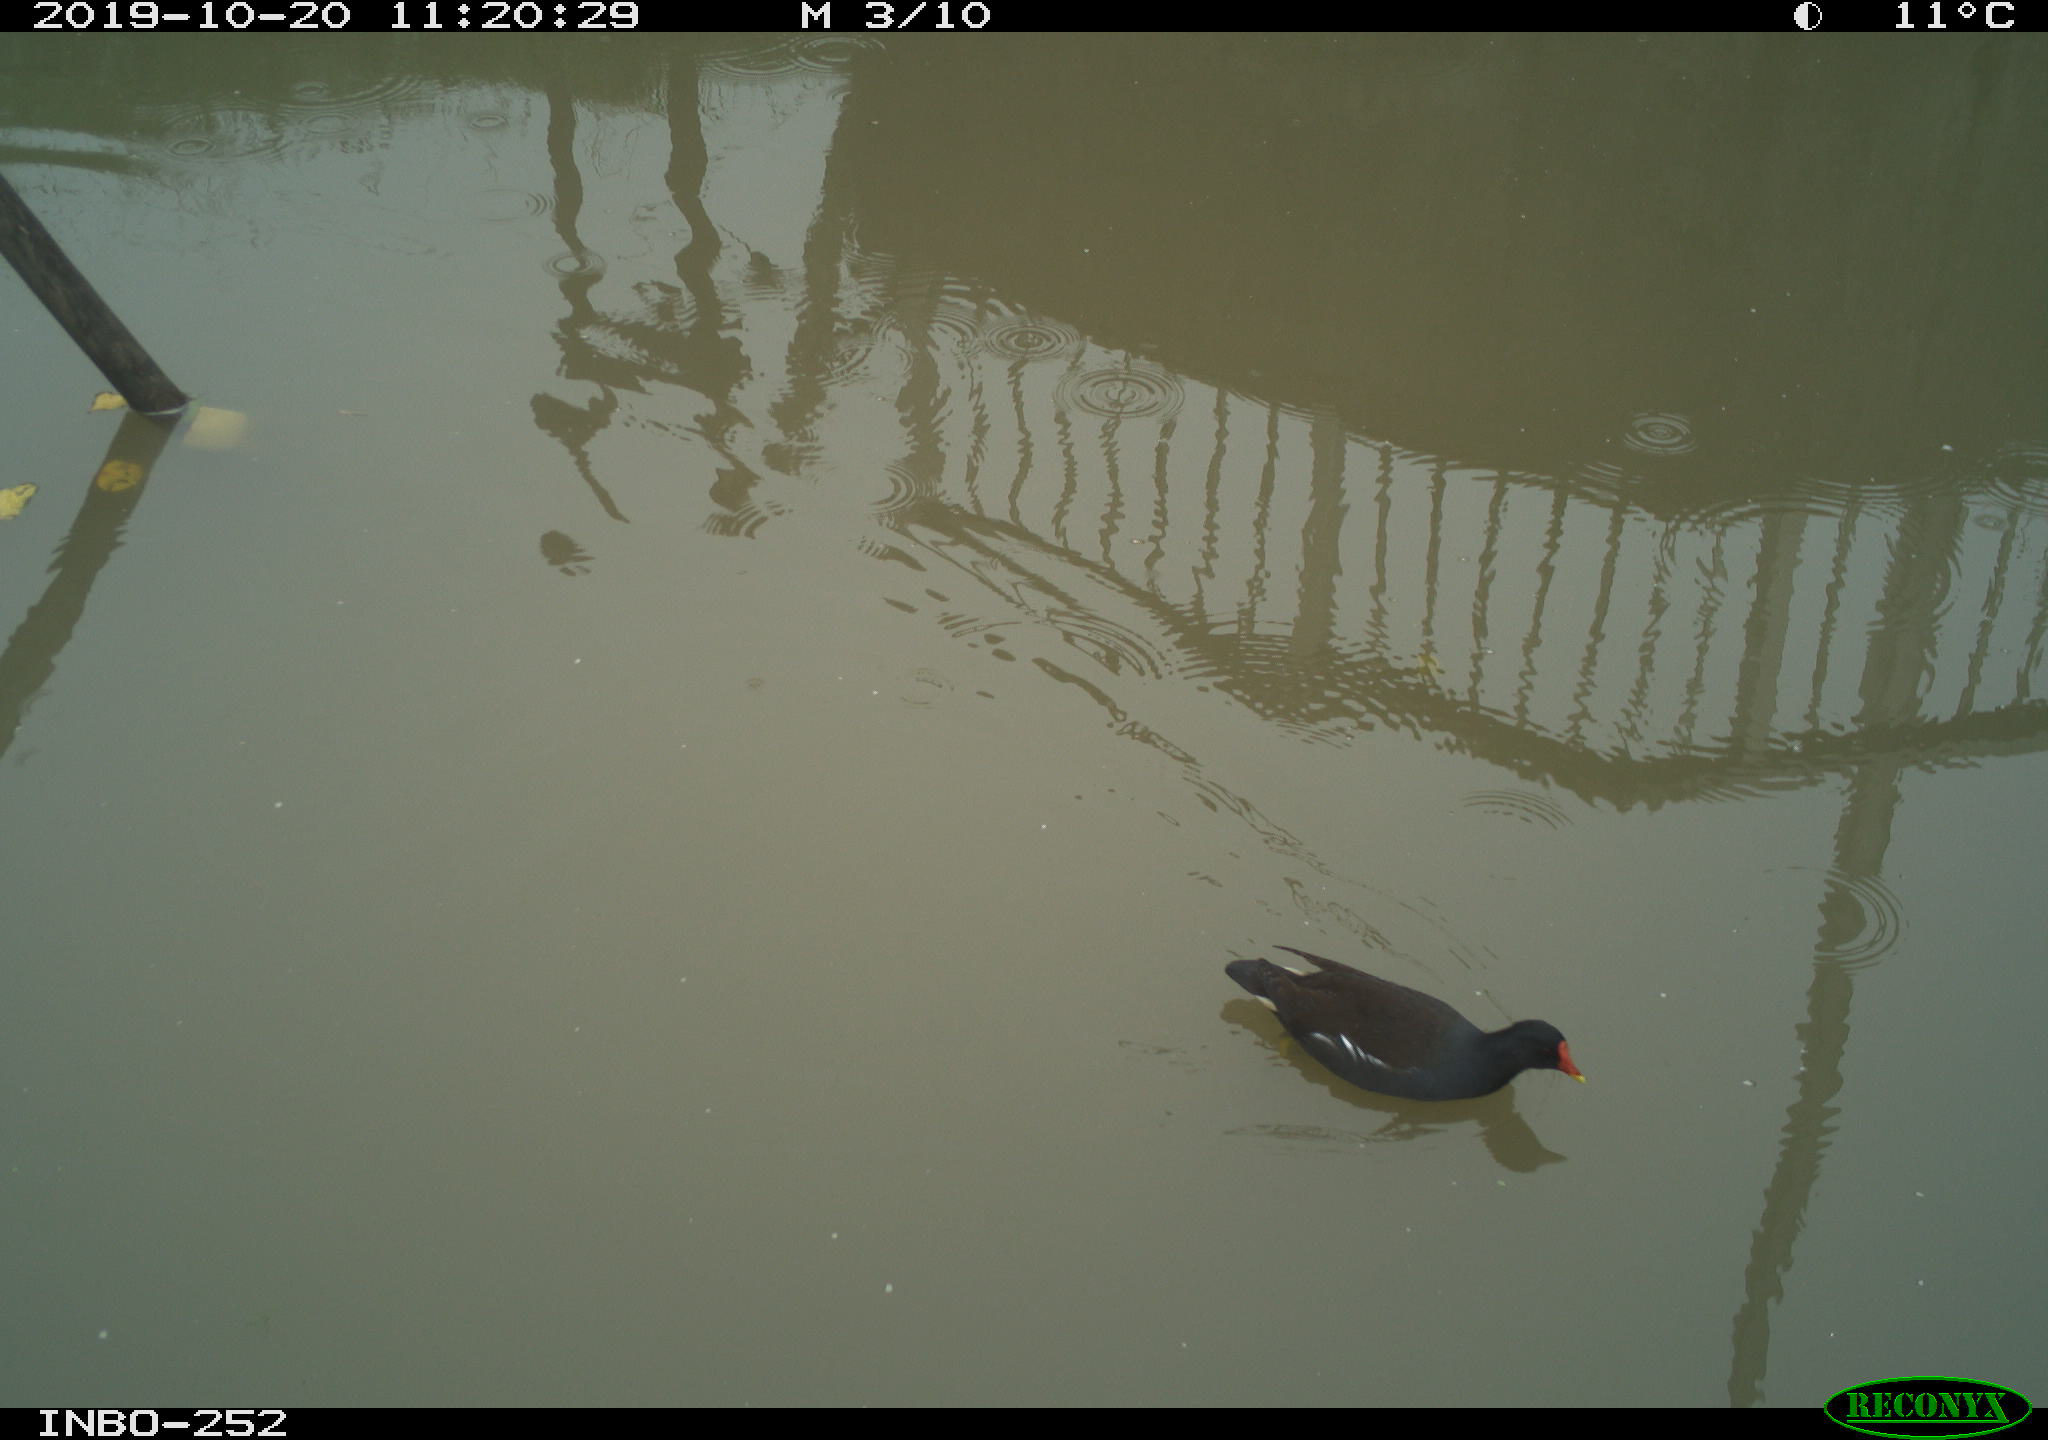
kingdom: Animalia
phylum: Chordata
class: Aves
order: Gruiformes
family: Rallidae
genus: Gallinula
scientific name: Gallinula chloropus
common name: Common moorhen
